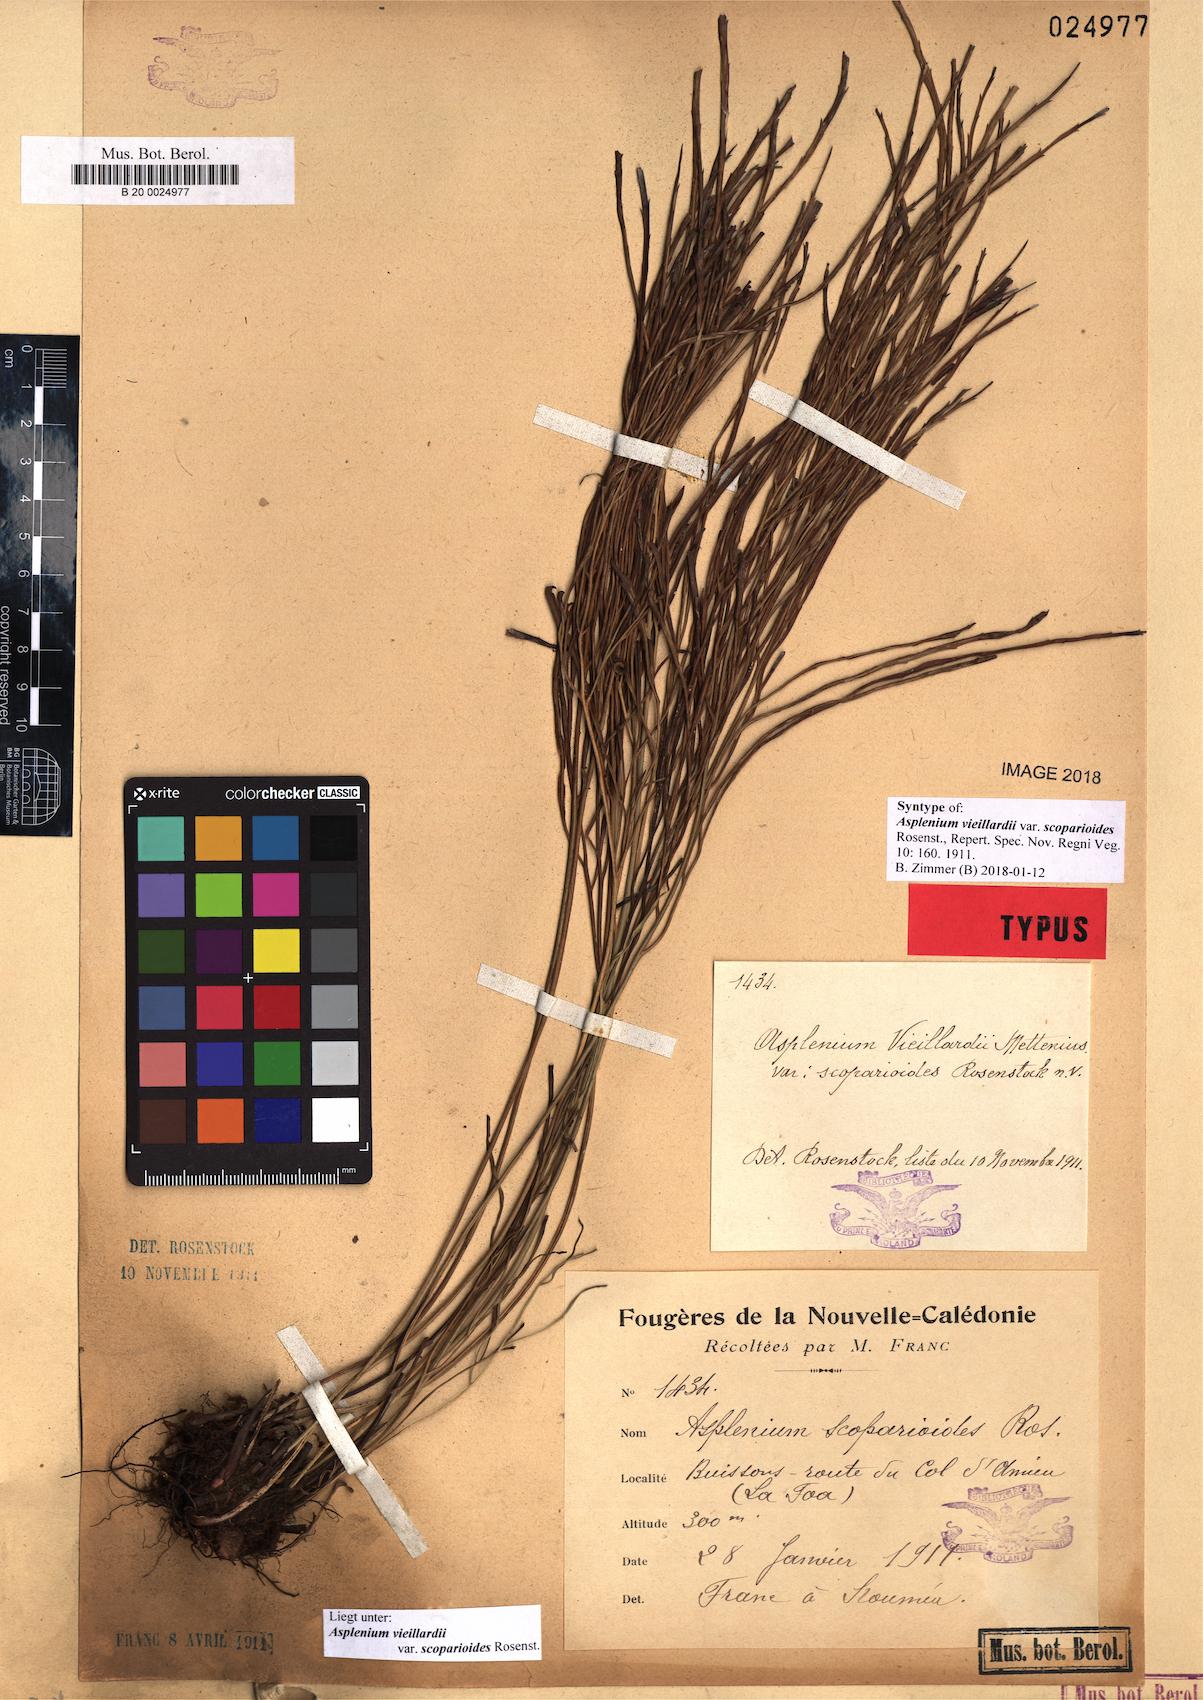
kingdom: Plantae
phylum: Tracheophyta
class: Polypodiopsida
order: Polypodiales
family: Aspleniaceae
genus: Asplenium
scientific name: Asplenium vieillardii
